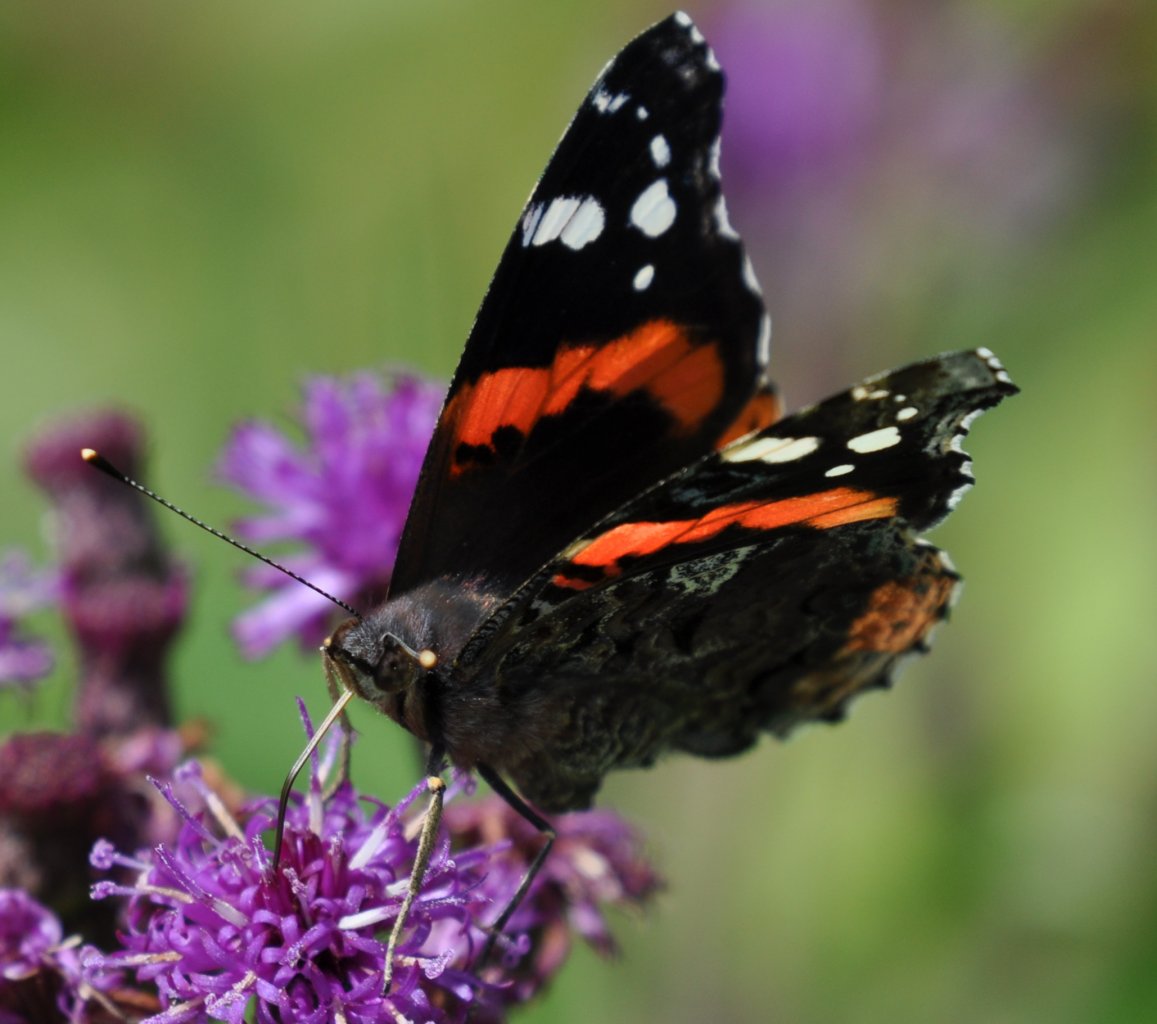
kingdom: Animalia
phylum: Arthropoda
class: Insecta
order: Lepidoptera
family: Nymphalidae
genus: Vanessa
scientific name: Vanessa atalanta
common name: Red Admiral
